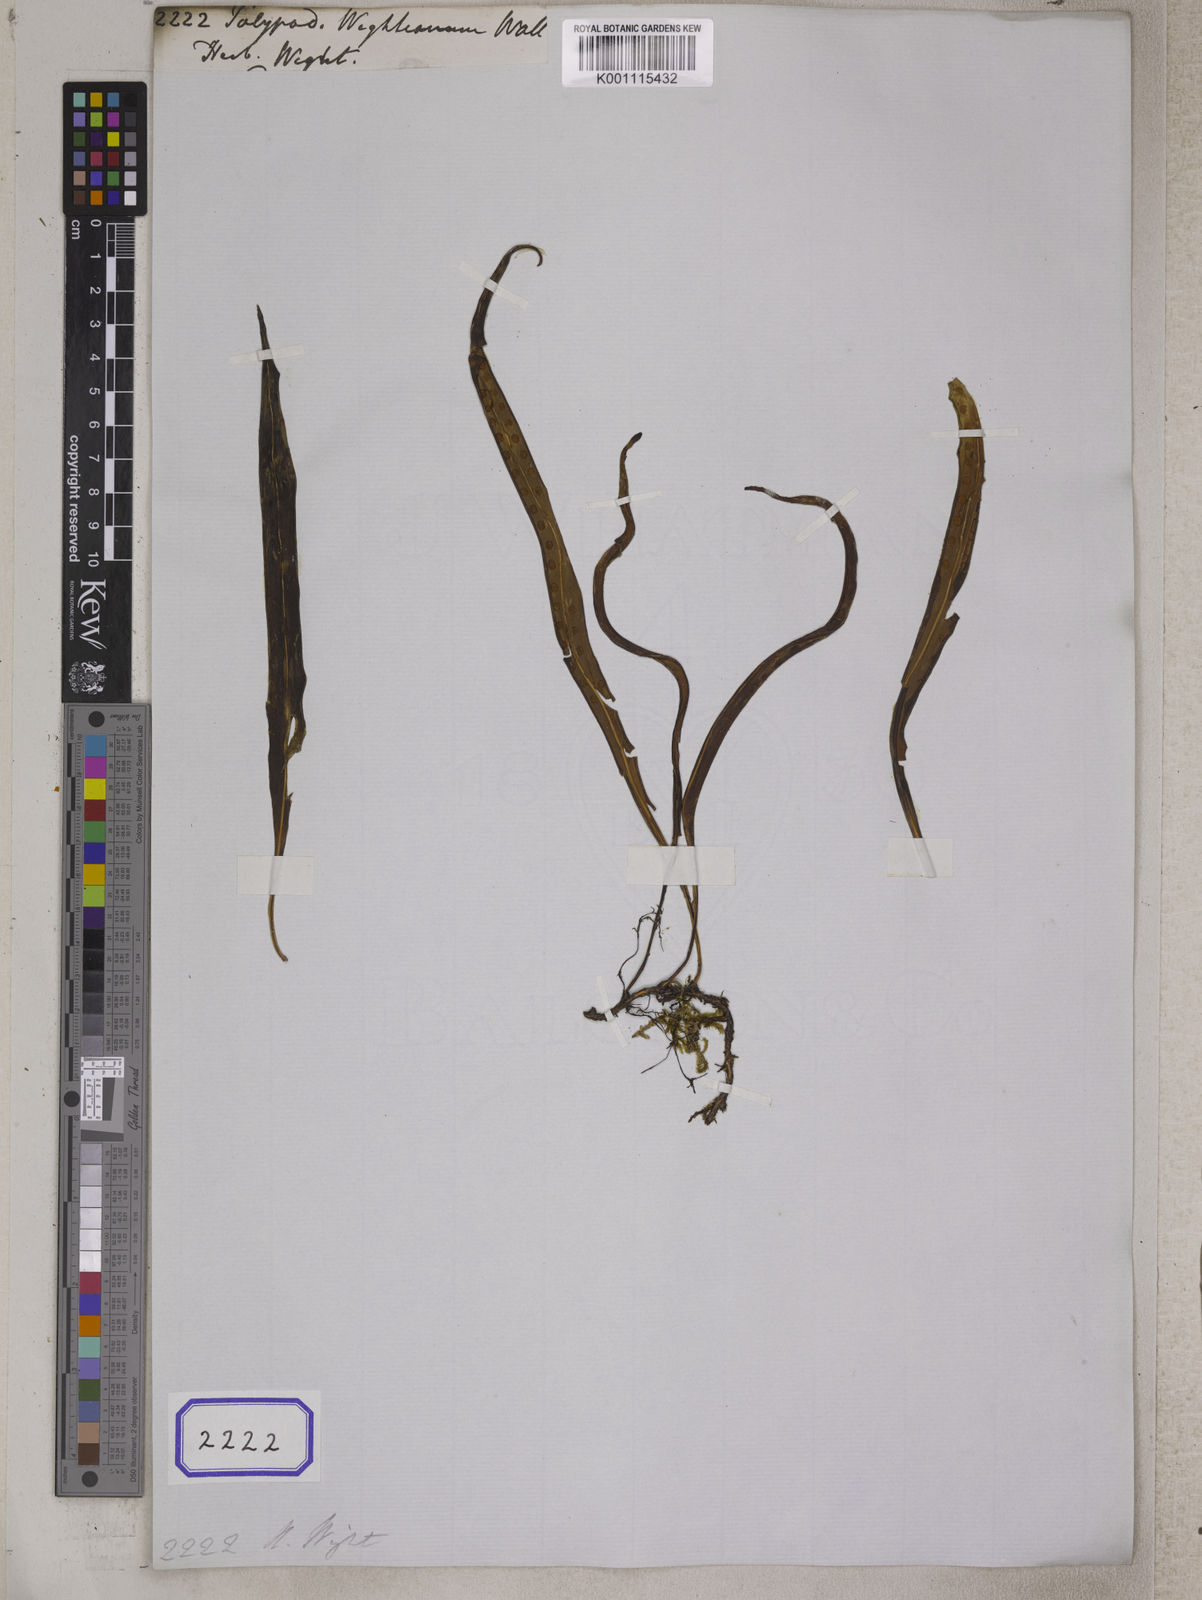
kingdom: Plantae
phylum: Tracheophyta
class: Polypodiopsida
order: Polypodiales
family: Polypodiaceae
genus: Lepisorus
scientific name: Lepisorus nudus
